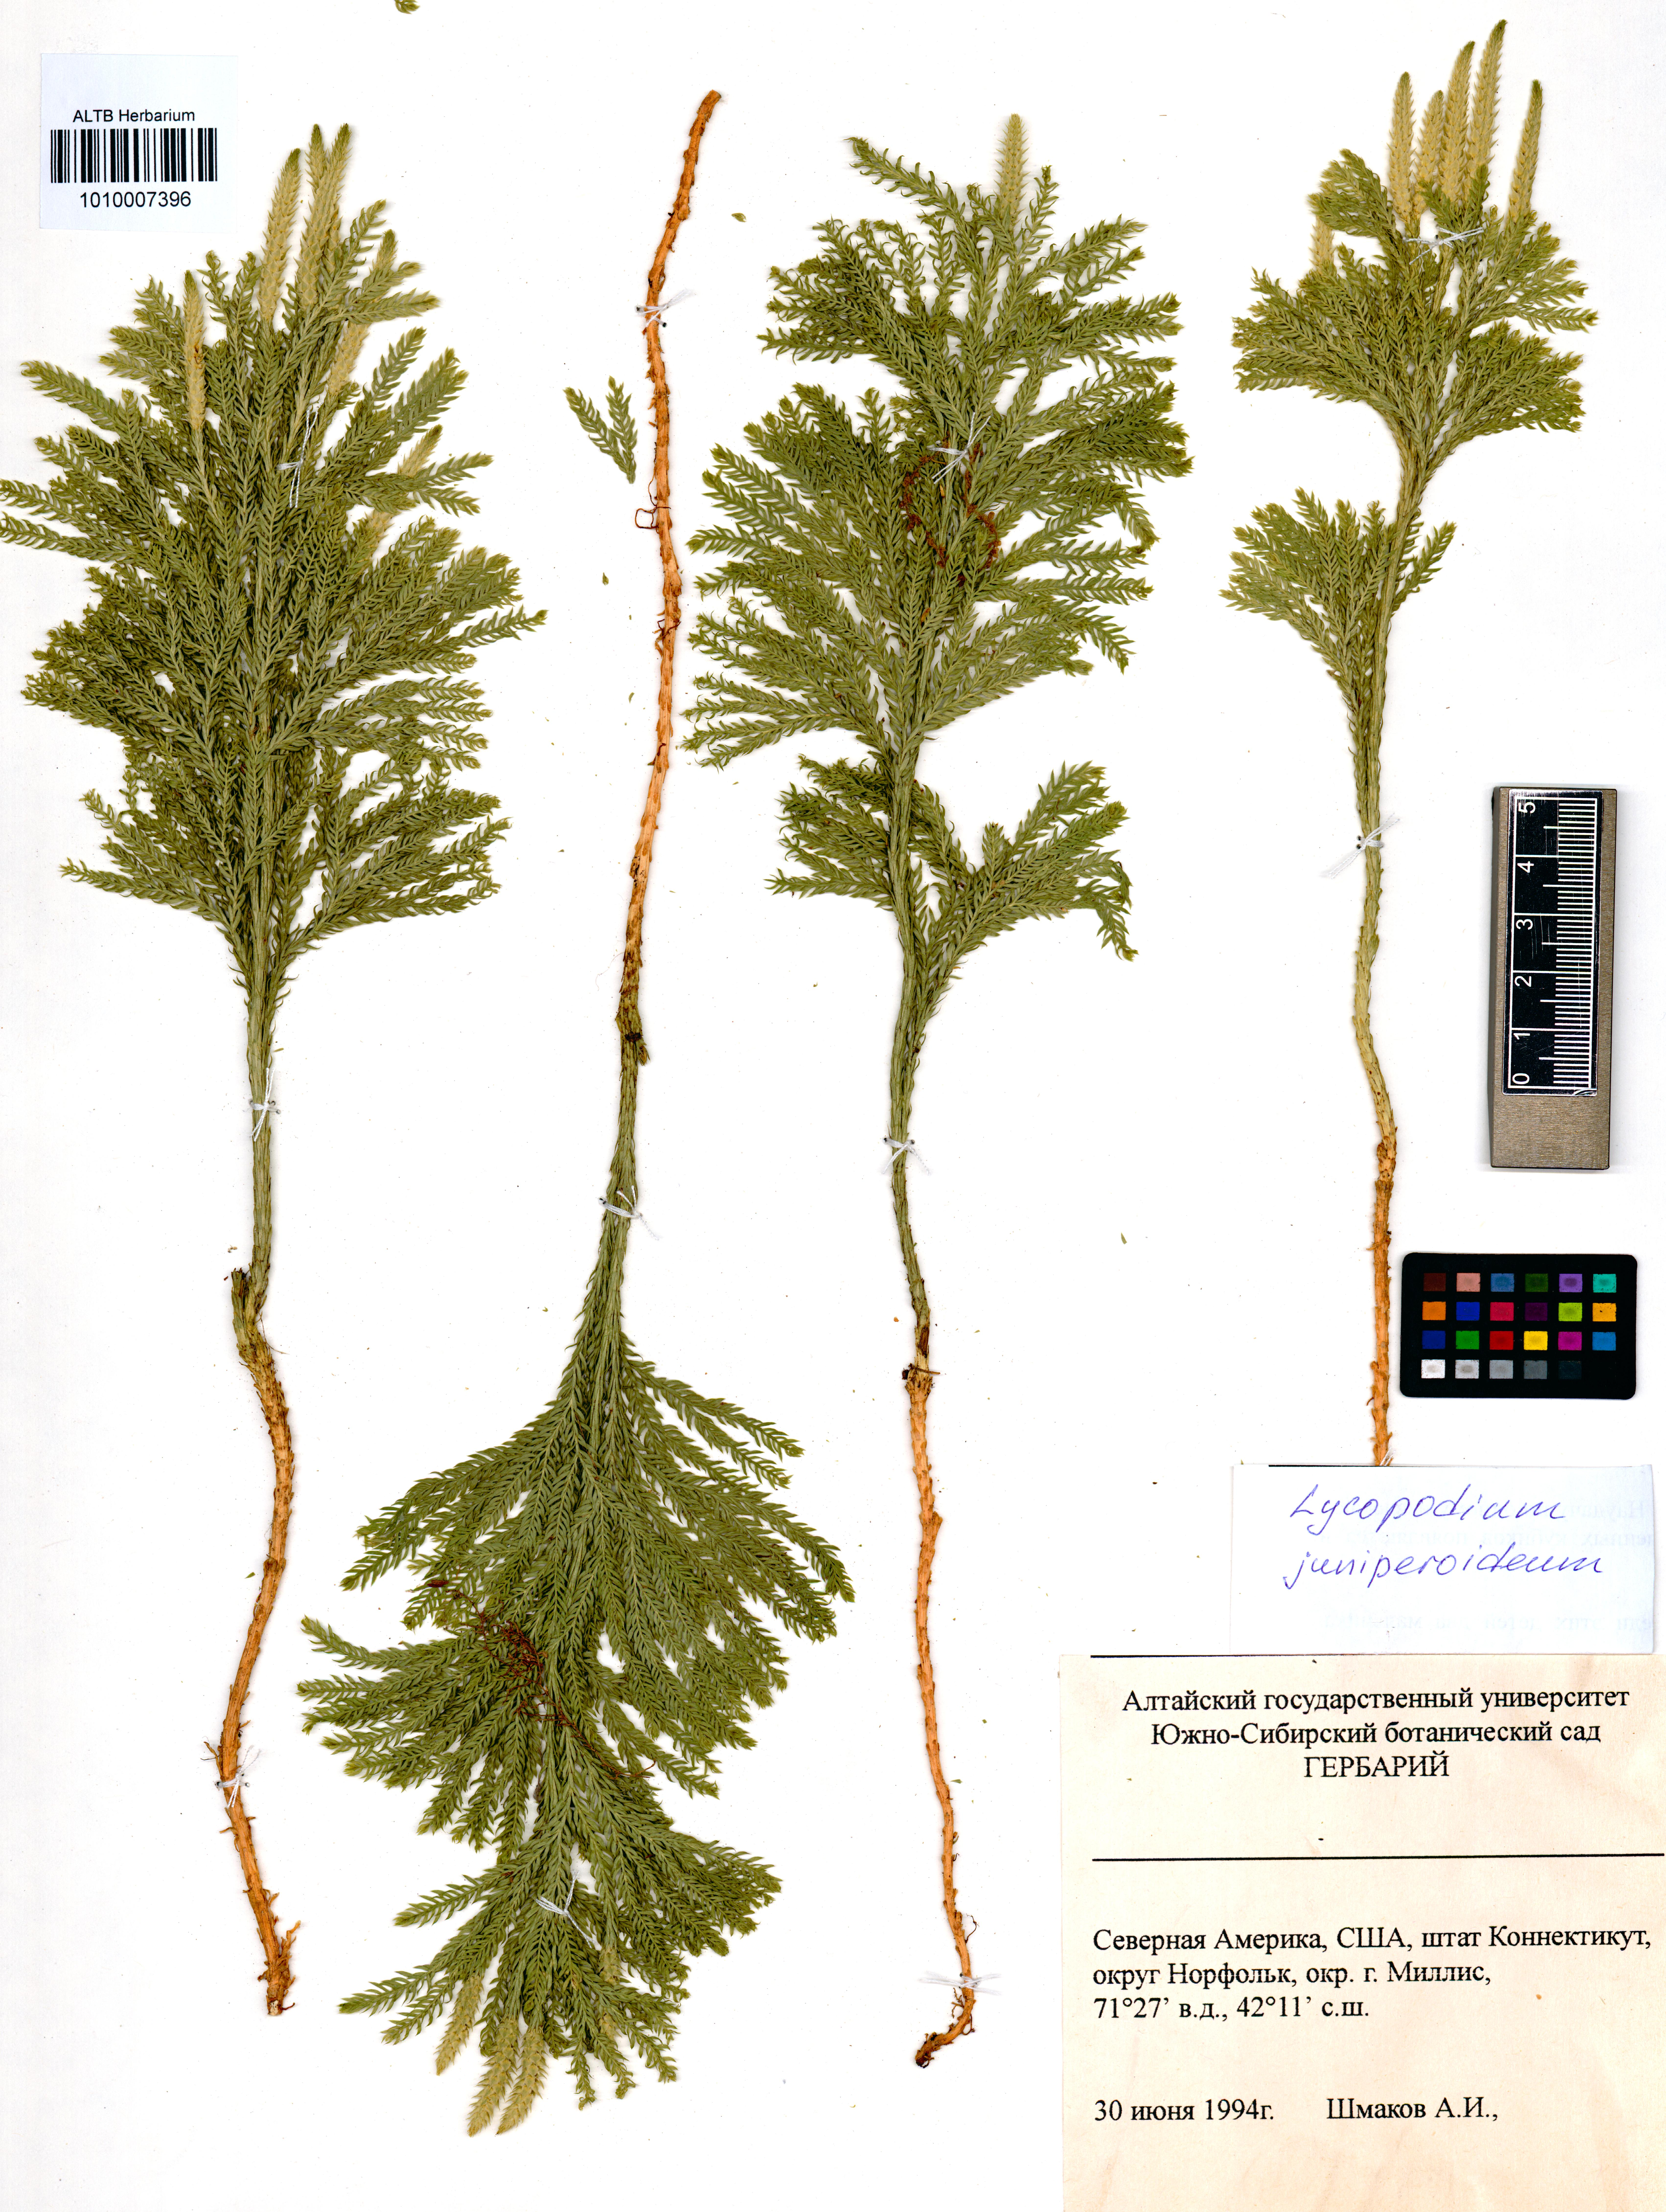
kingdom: Plantae
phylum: Tracheophyta
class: Lycopodiopsida
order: Lycopodiales
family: Lycopodiaceae
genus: Dendrolycopodium
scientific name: Dendrolycopodium juniperoideum
